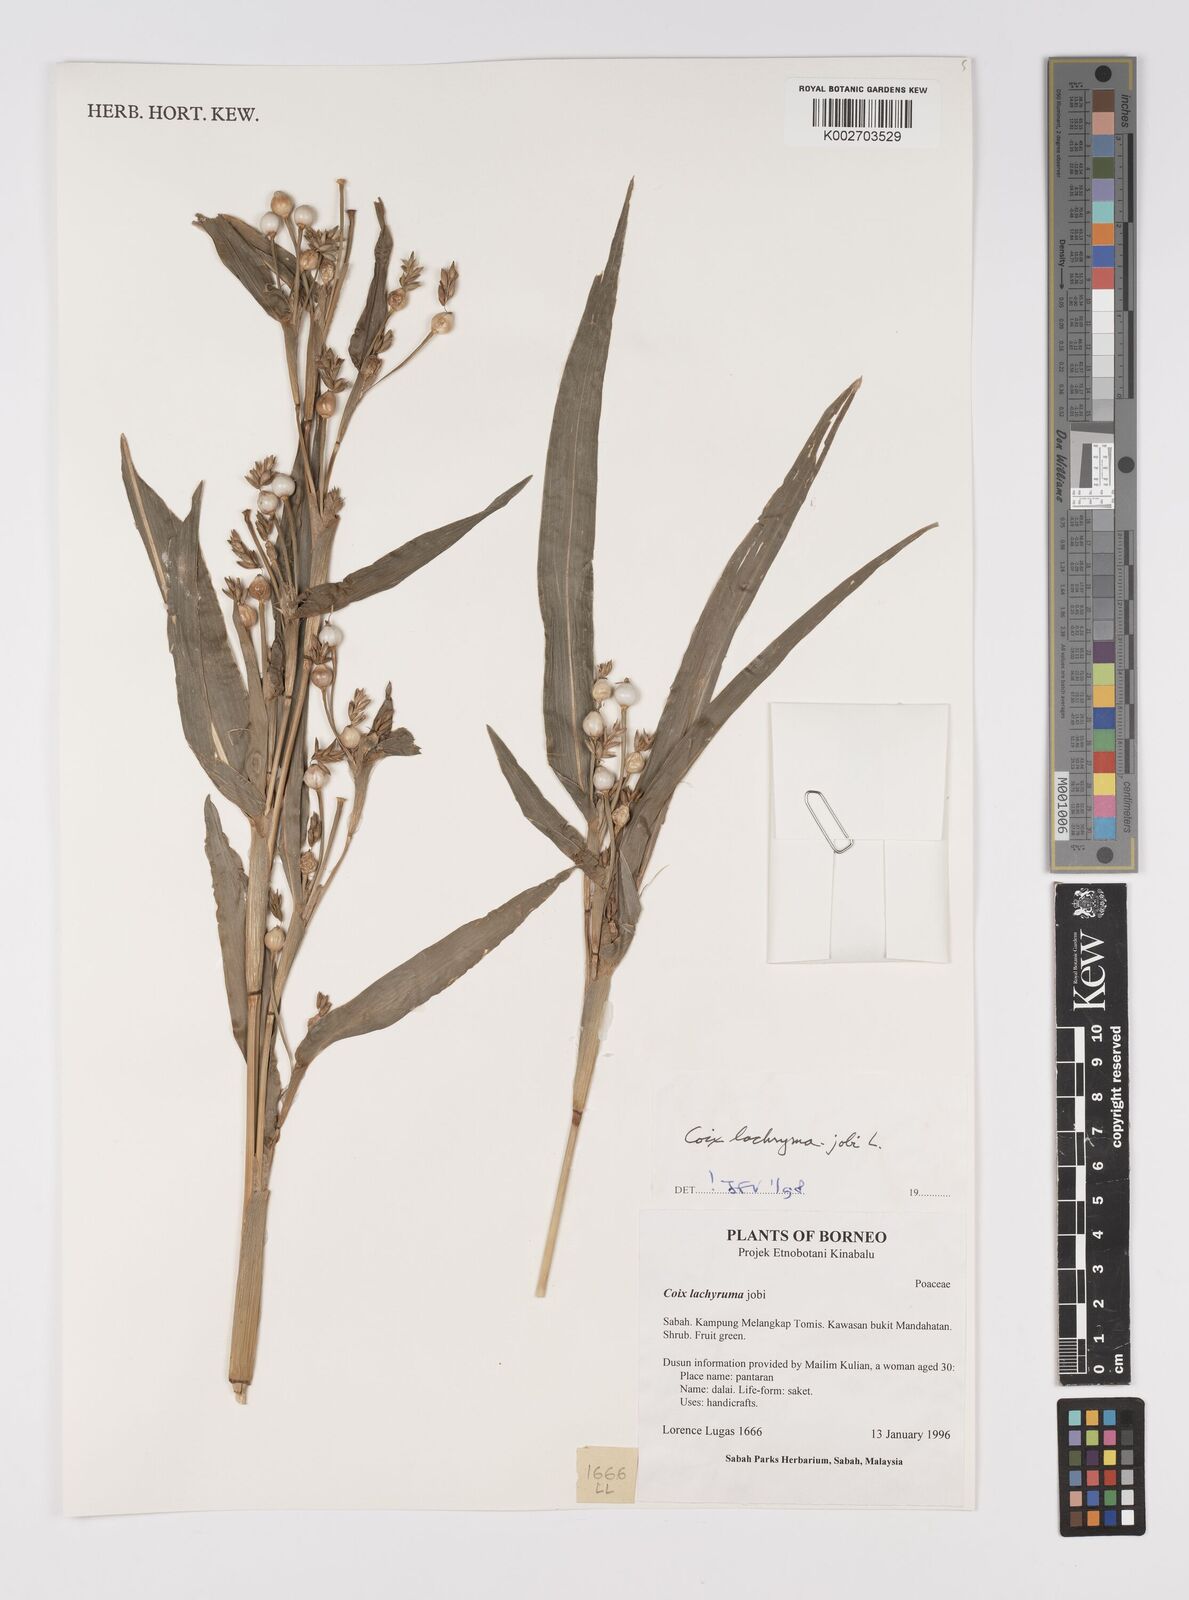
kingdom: Plantae
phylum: Tracheophyta
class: Liliopsida
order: Poales
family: Poaceae
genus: Coix
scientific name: Coix lacryma-jobi
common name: Job's tears
